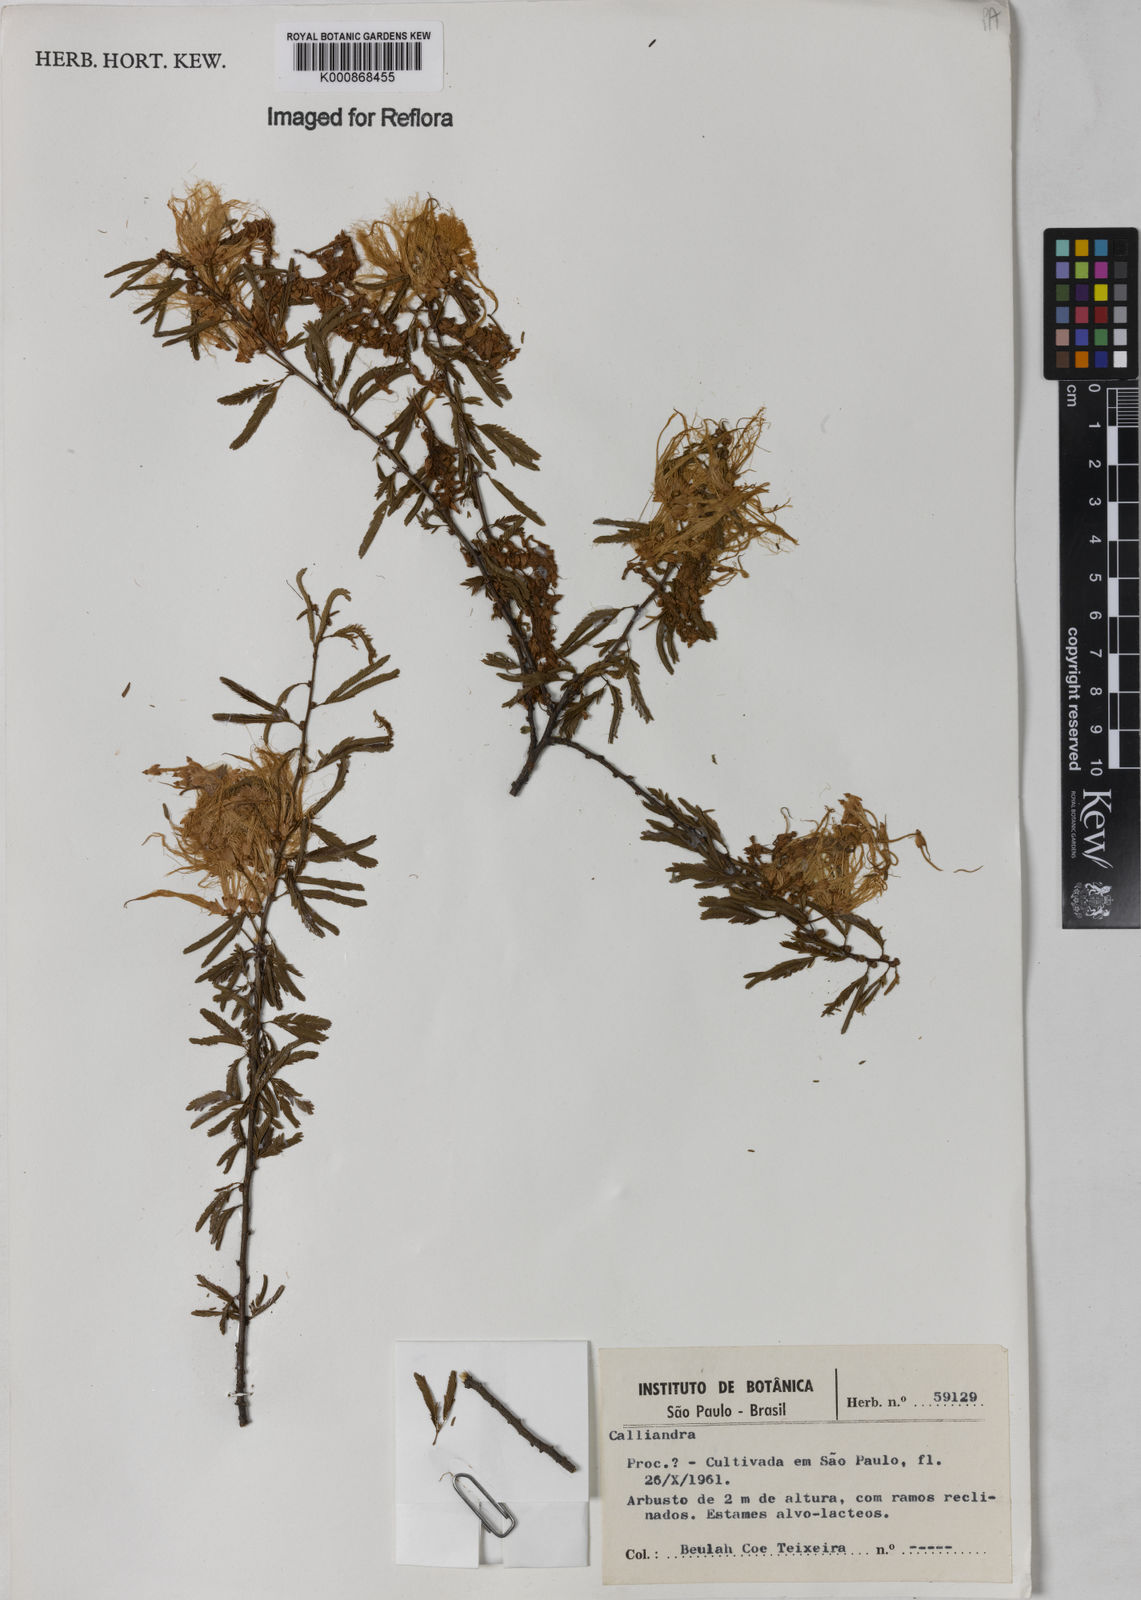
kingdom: Plantae
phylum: Tracheophyta
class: Magnoliopsida
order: Fabales
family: Fabaceae
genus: Calliandra
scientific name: Calliandra
